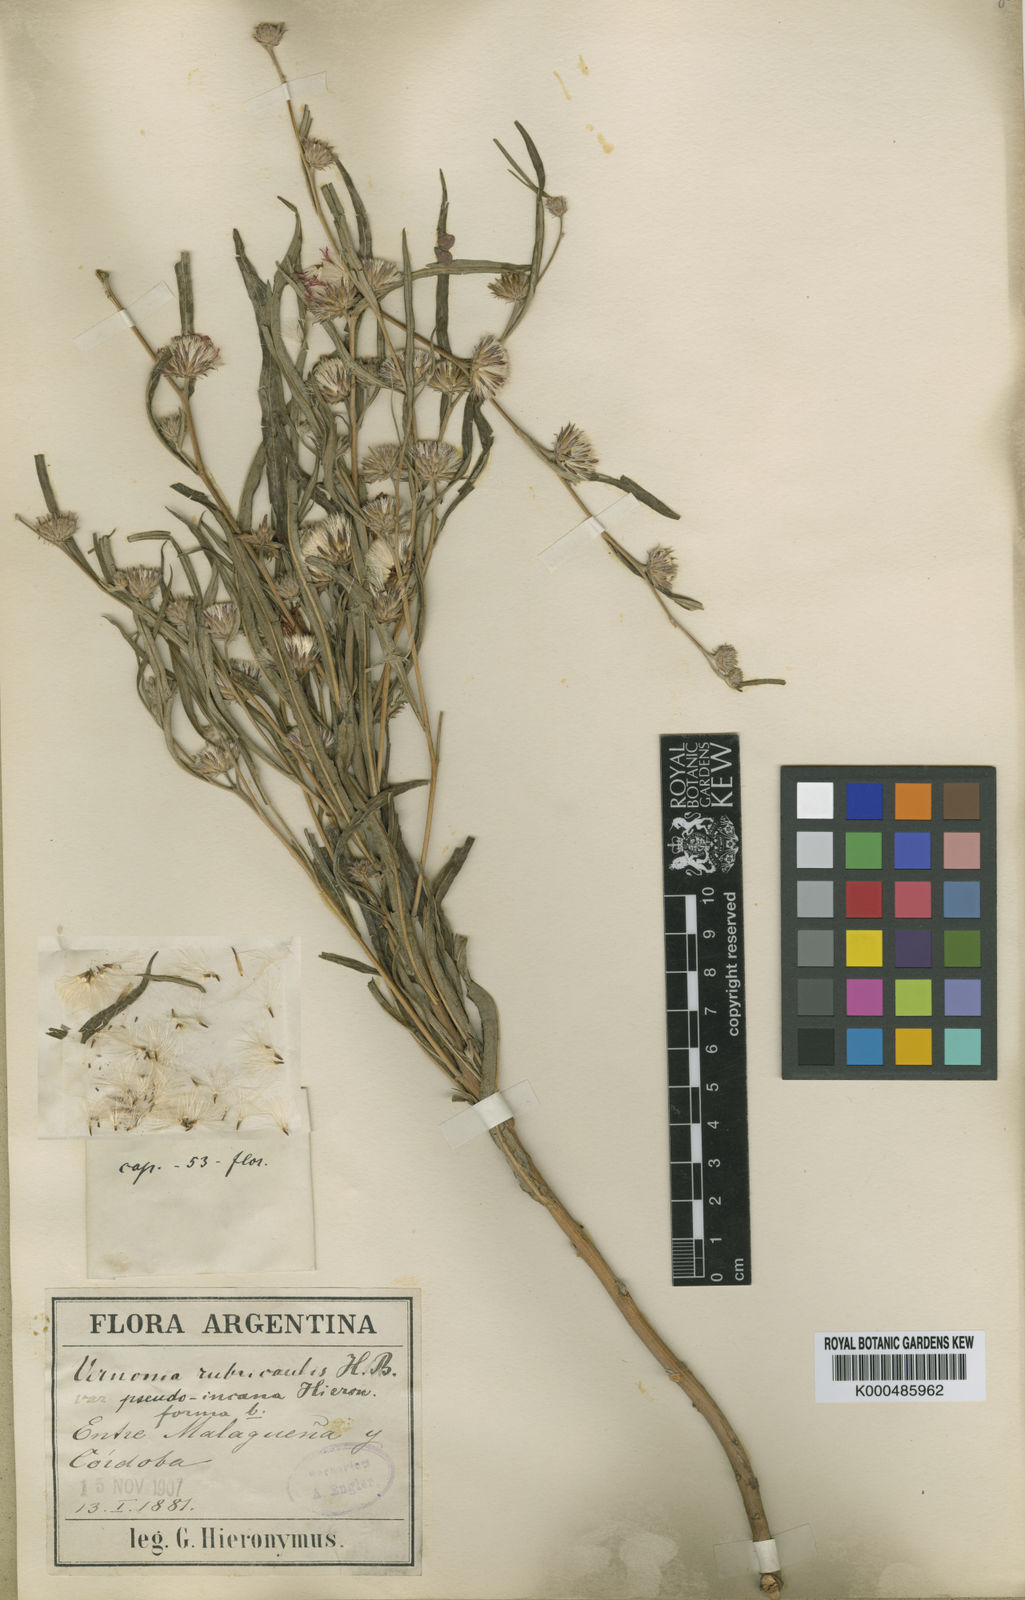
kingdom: Plantae
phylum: Tracheophyta
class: Magnoliopsida
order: Asterales
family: Asteraceae
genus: Lessingianthus
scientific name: Lessingianthus rubricaulis
